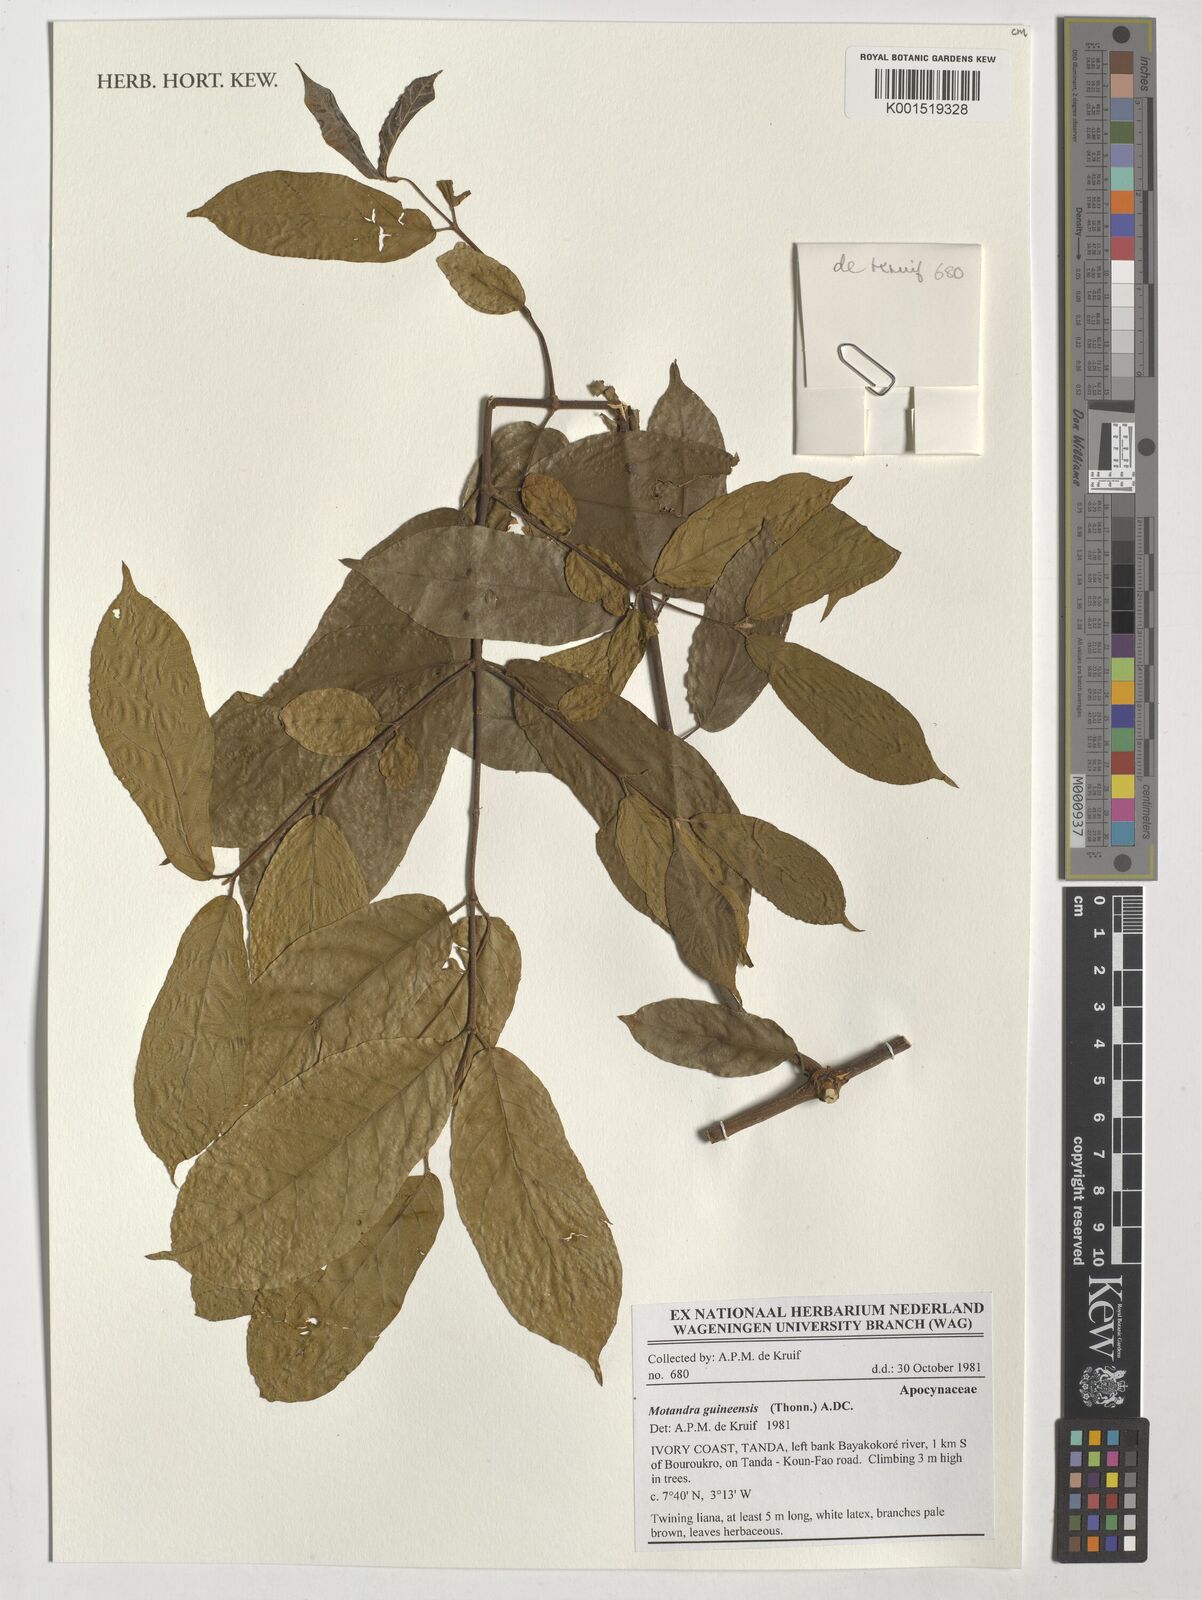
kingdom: Plantae
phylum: Tracheophyta
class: Magnoliopsida
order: Gentianales
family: Apocynaceae
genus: Motandra
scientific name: Motandra paniculata
